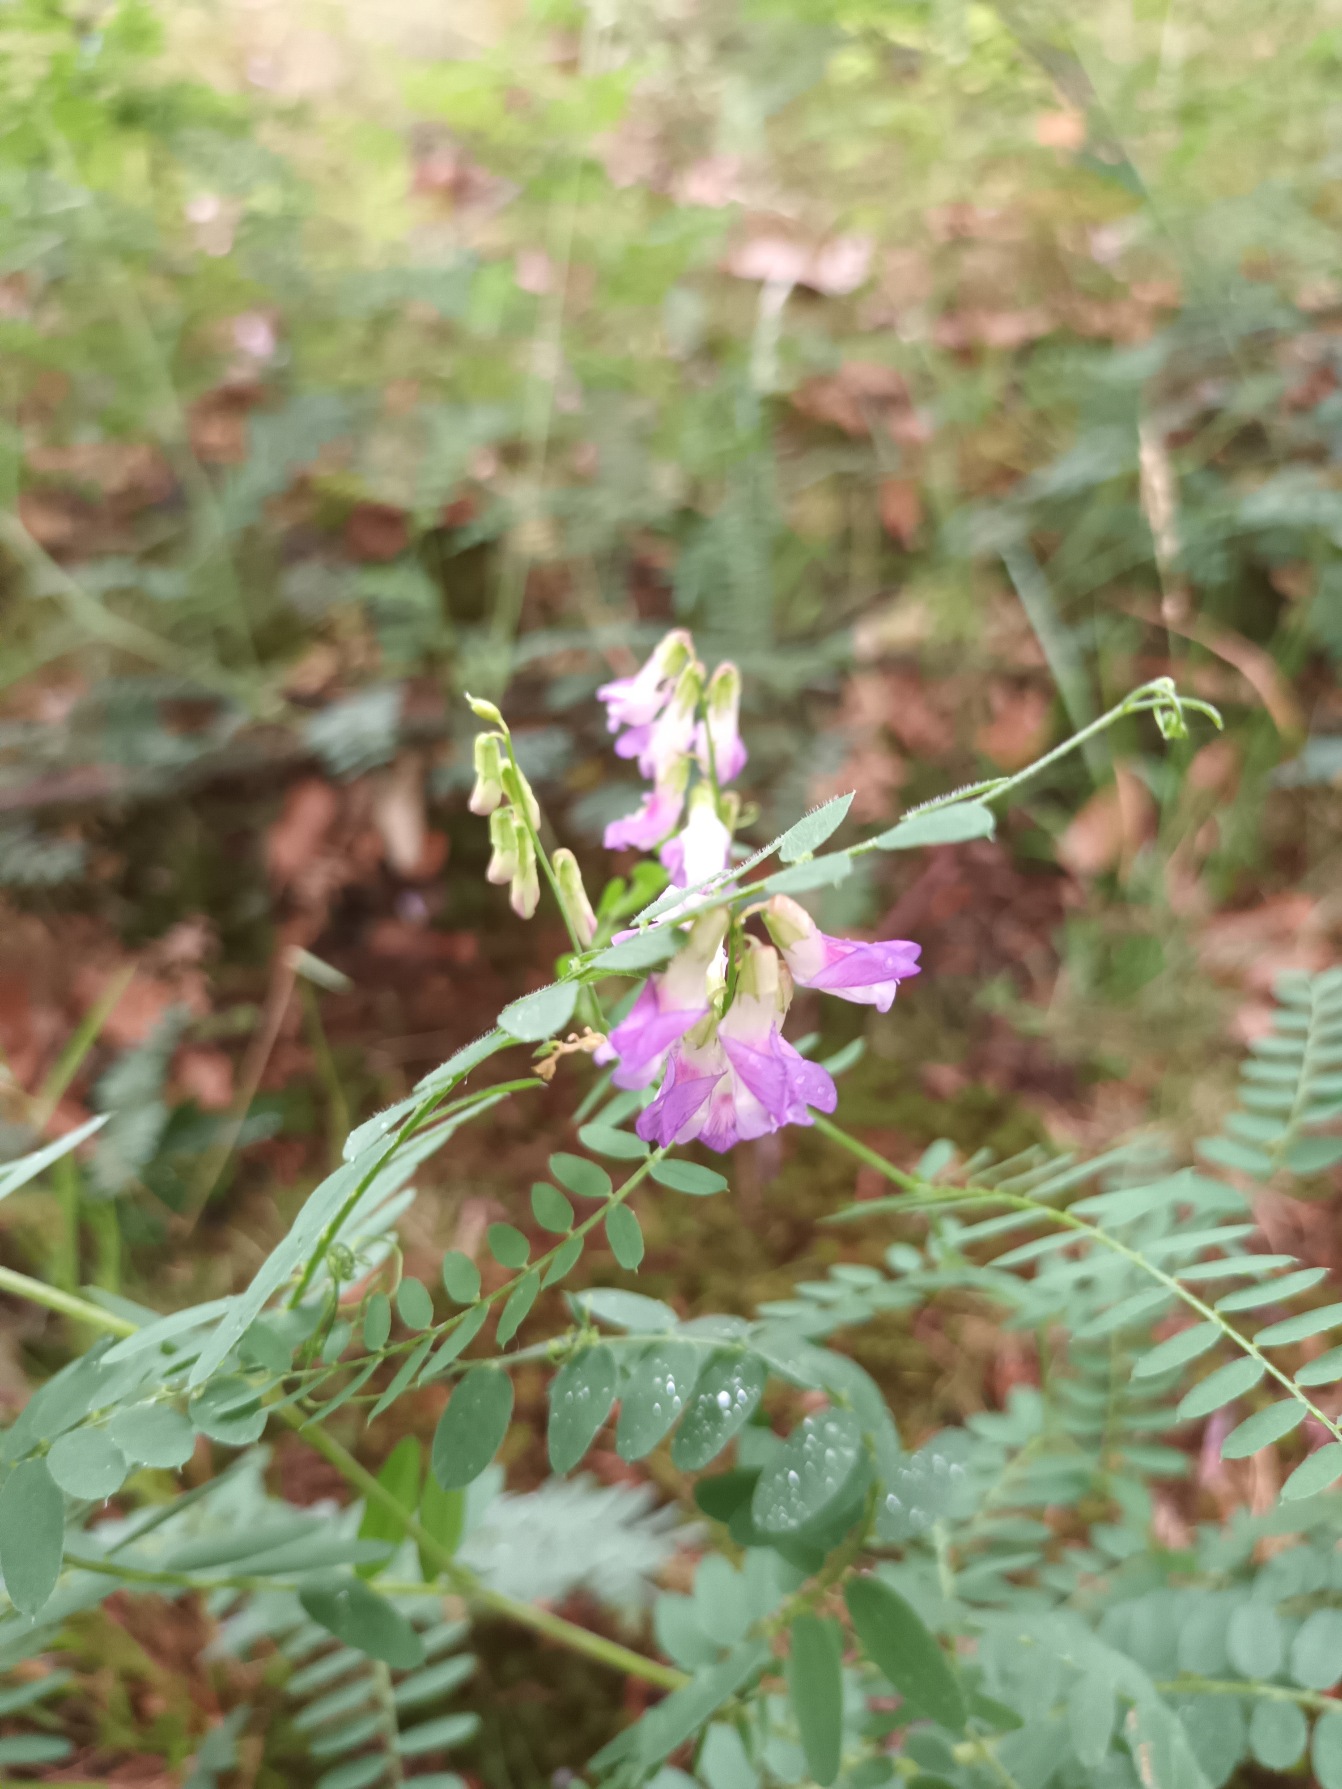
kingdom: Plantae
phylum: Tracheophyta
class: Magnoliopsida
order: Fabales
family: Fabaceae
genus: Vicia
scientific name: Vicia cassubica
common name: Kassubisk vikke
